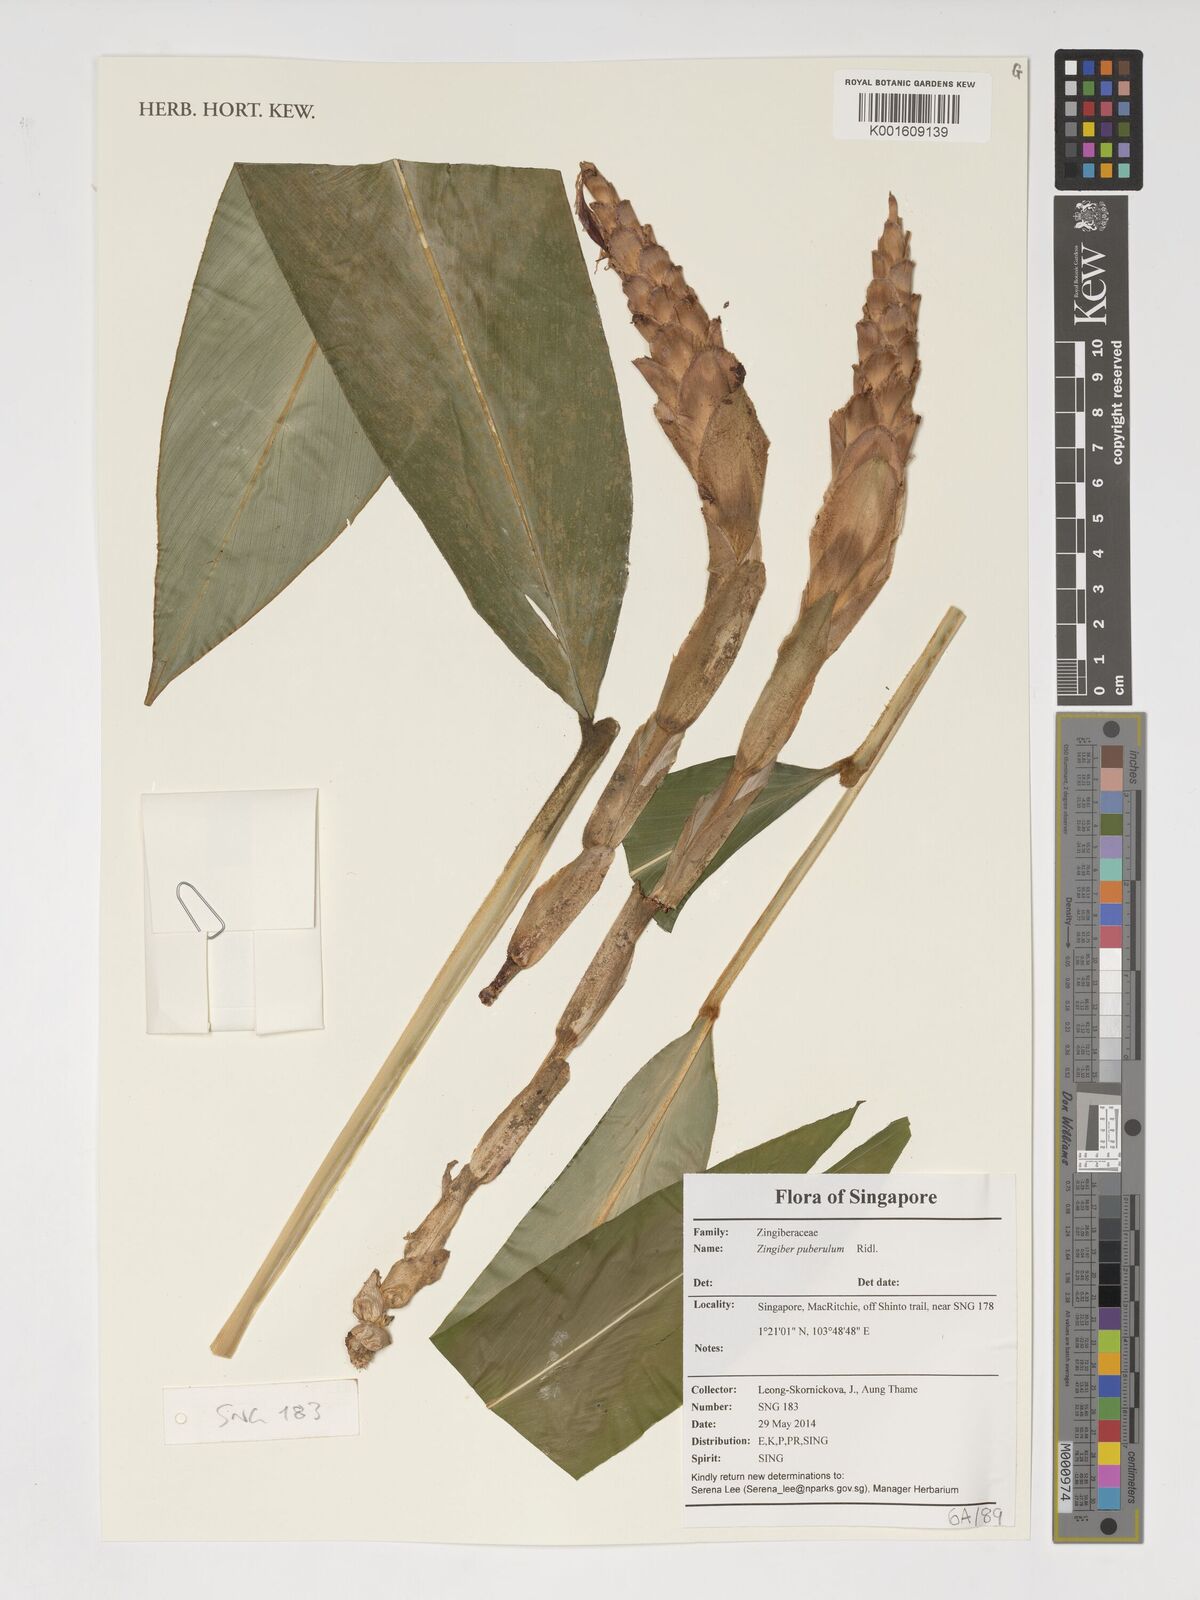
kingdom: Plantae
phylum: Tracheophyta
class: Liliopsida
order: Zingiberales
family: Zingiberaceae
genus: Zingiber
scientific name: Zingiber puberulum
